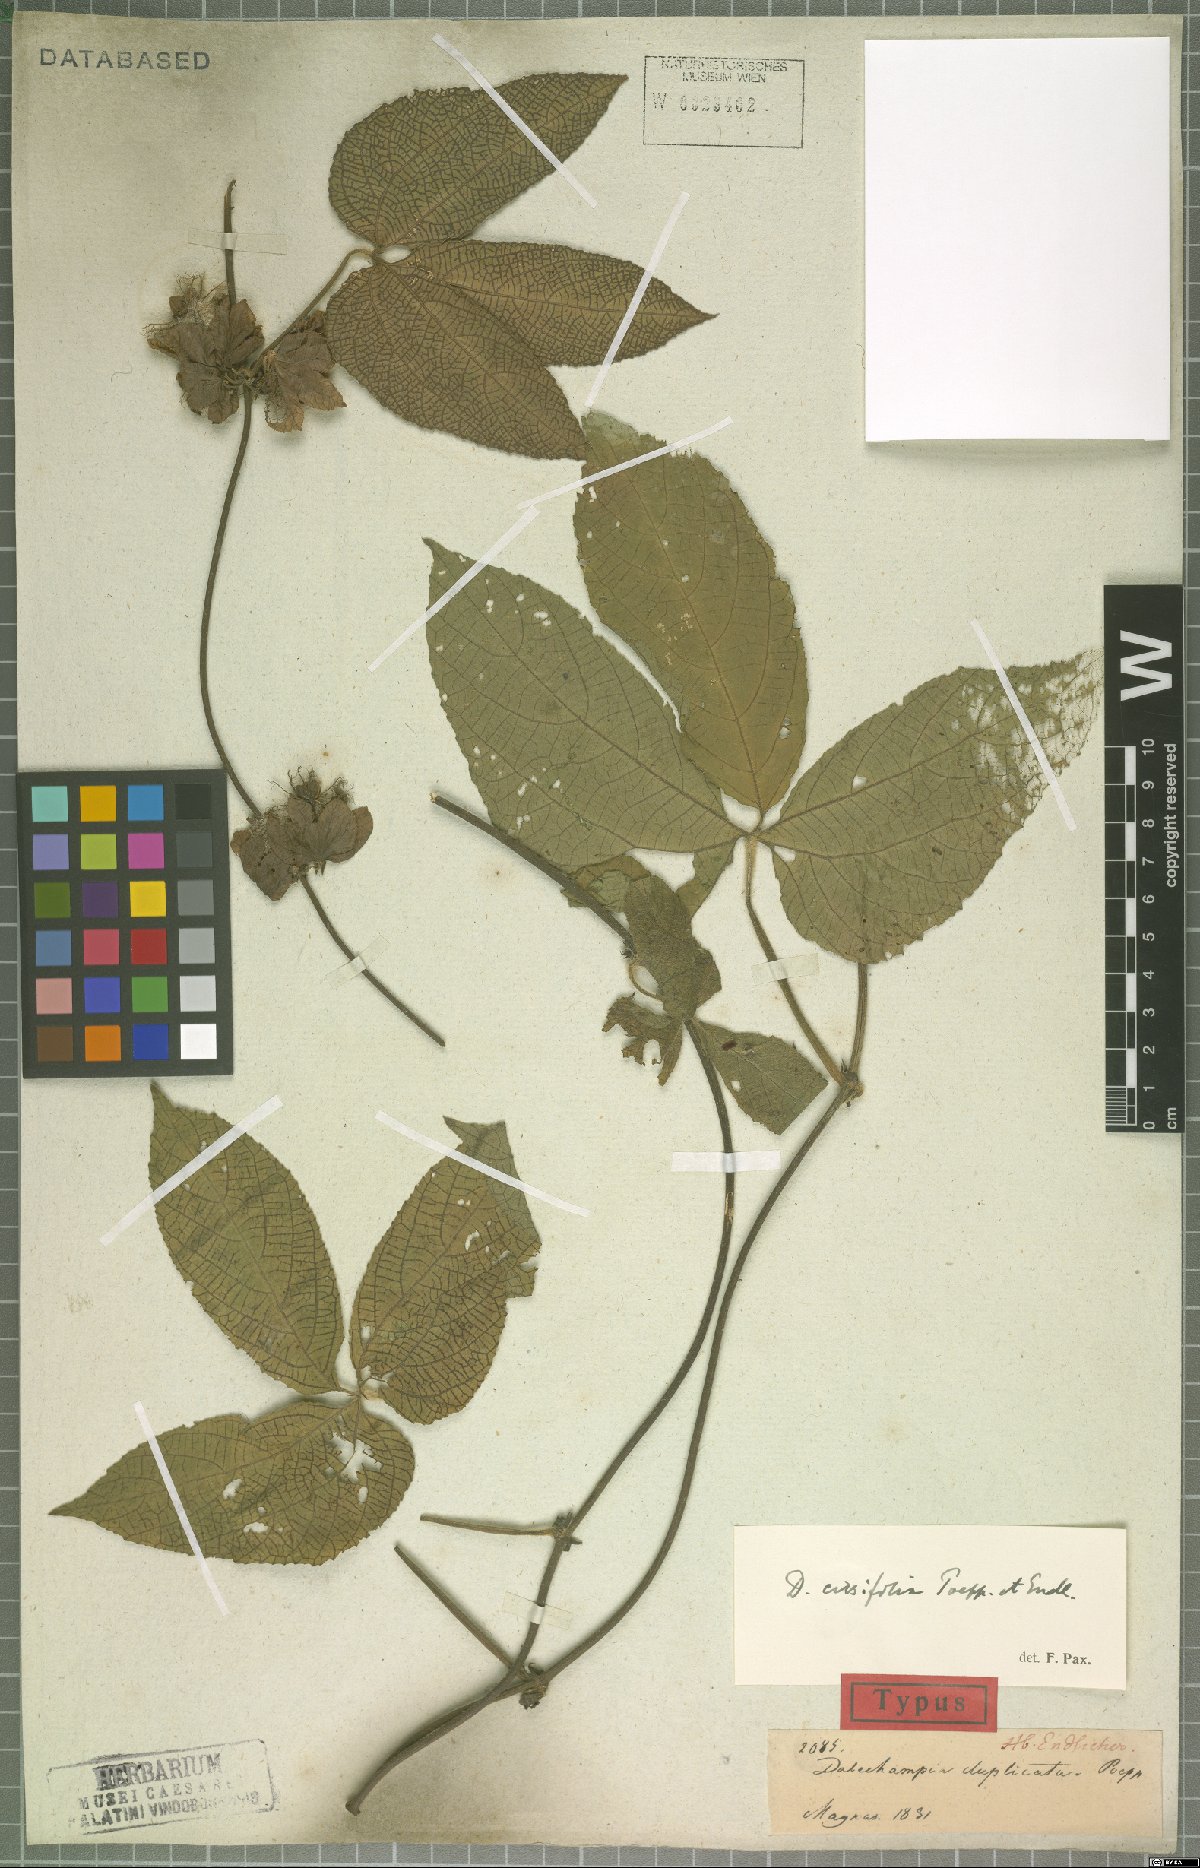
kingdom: Plantae
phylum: Tracheophyta
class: Magnoliopsida
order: Malpighiales
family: Euphorbiaceae
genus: Dalechampia
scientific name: Dalechampia cissifolia
